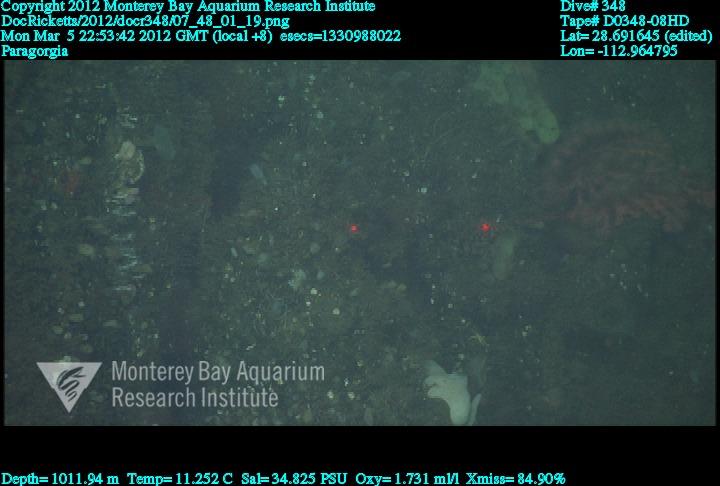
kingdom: Animalia
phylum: Cnidaria
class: Anthozoa
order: Scleralcyonacea
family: Coralliidae
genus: Paragorgia
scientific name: Paragorgia
